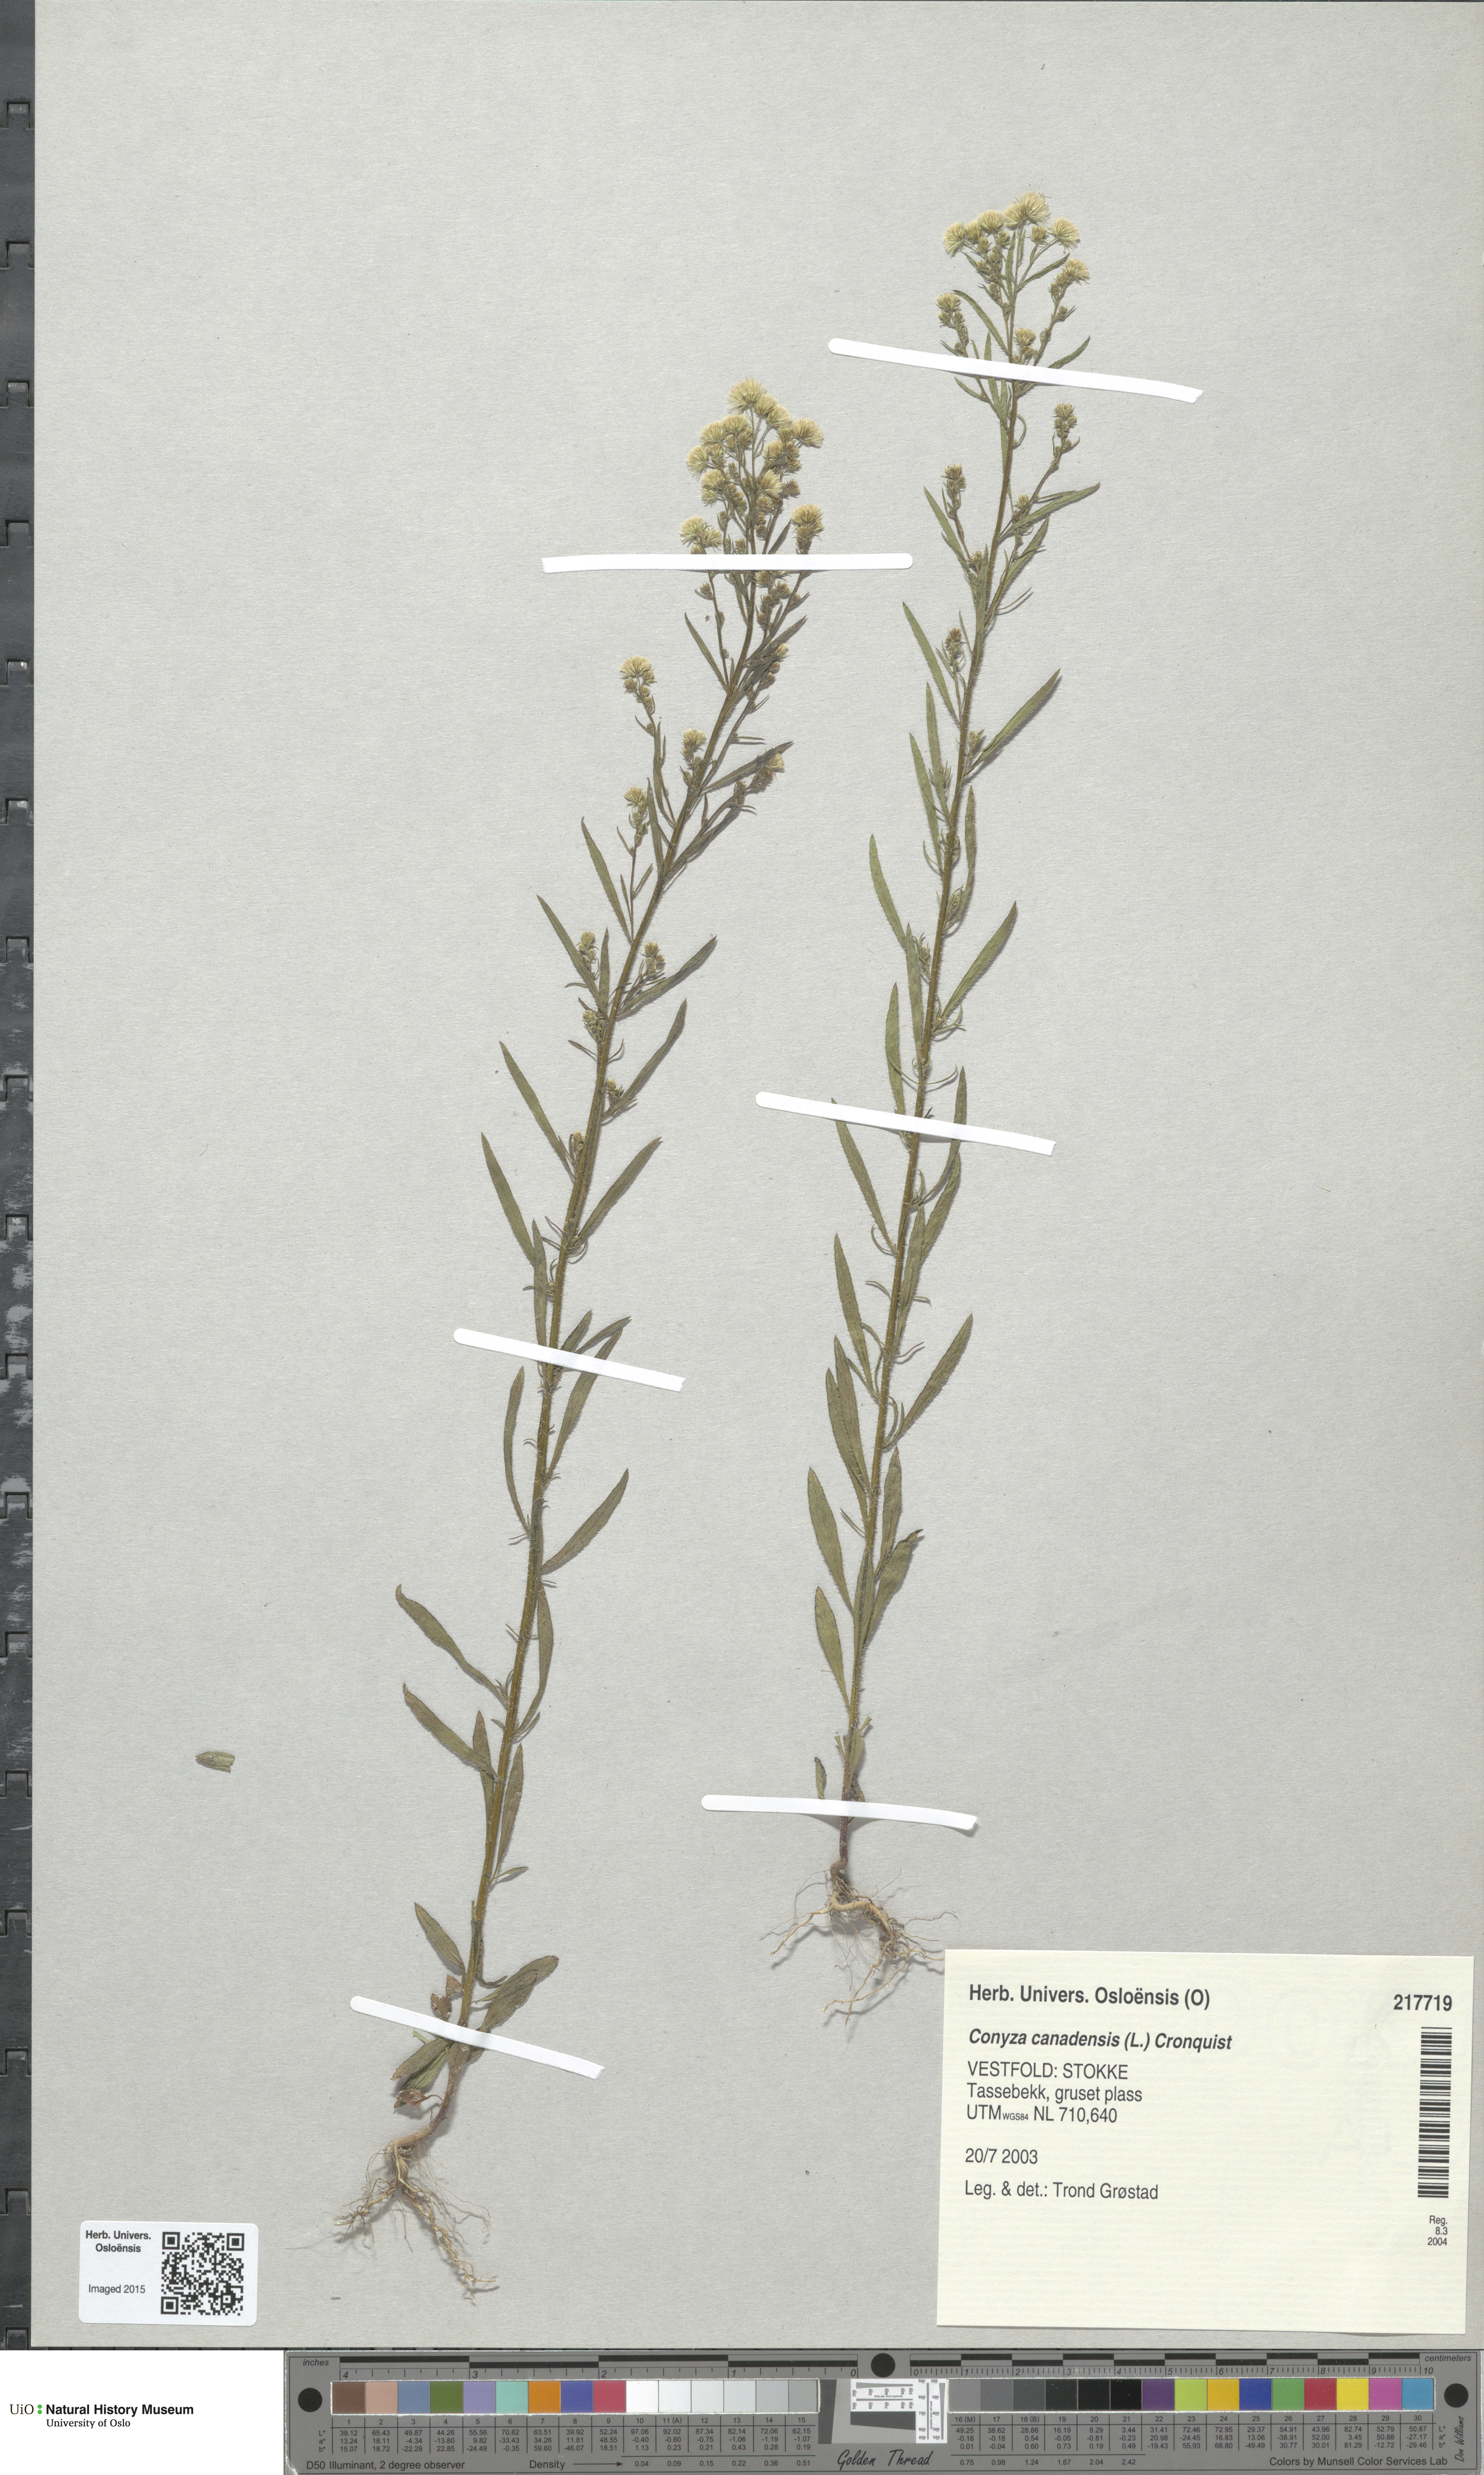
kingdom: Plantae
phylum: Tracheophyta
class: Magnoliopsida
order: Asterales
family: Asteraceae
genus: Erigeron
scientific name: Erigeron canadensis
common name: Canadian fleabane
